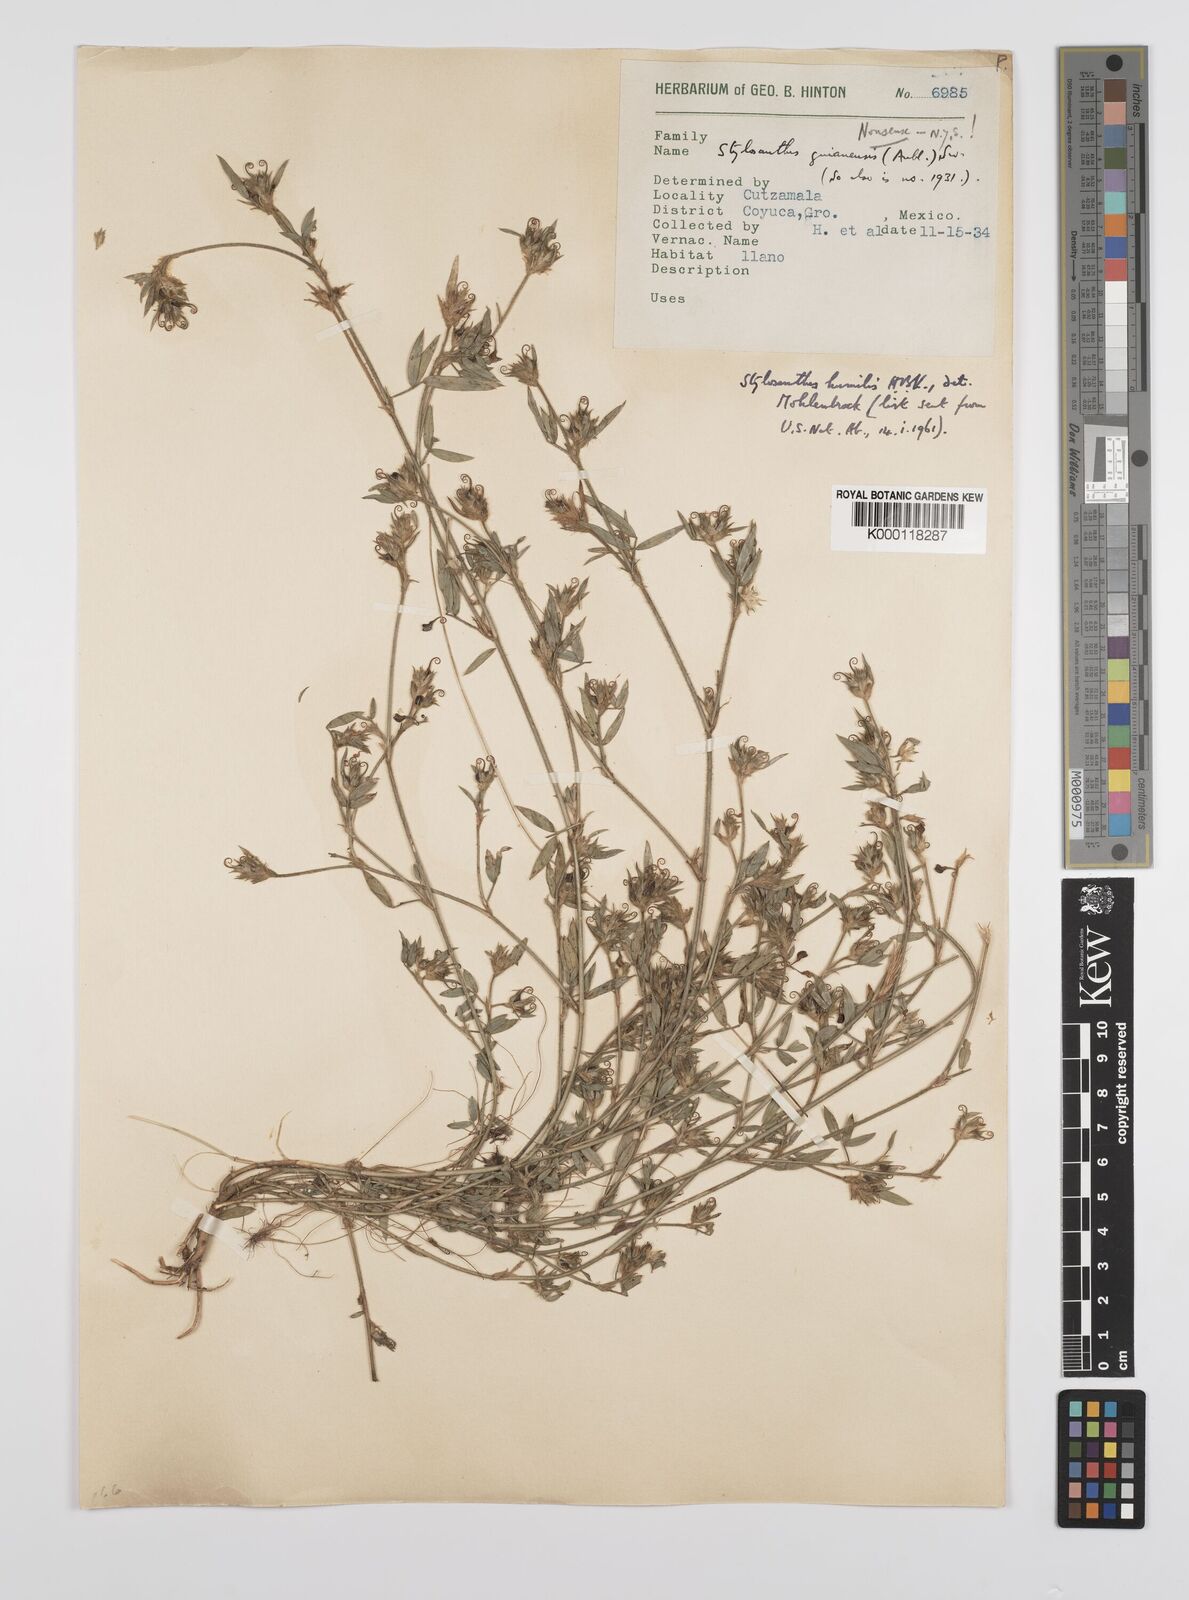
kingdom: Plantae
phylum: Tracheophyta
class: Magnoliopsida
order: Fabales
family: Fabaceae
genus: Stylosanthes
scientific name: Stylosanthes humilis
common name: Townsville stylo
